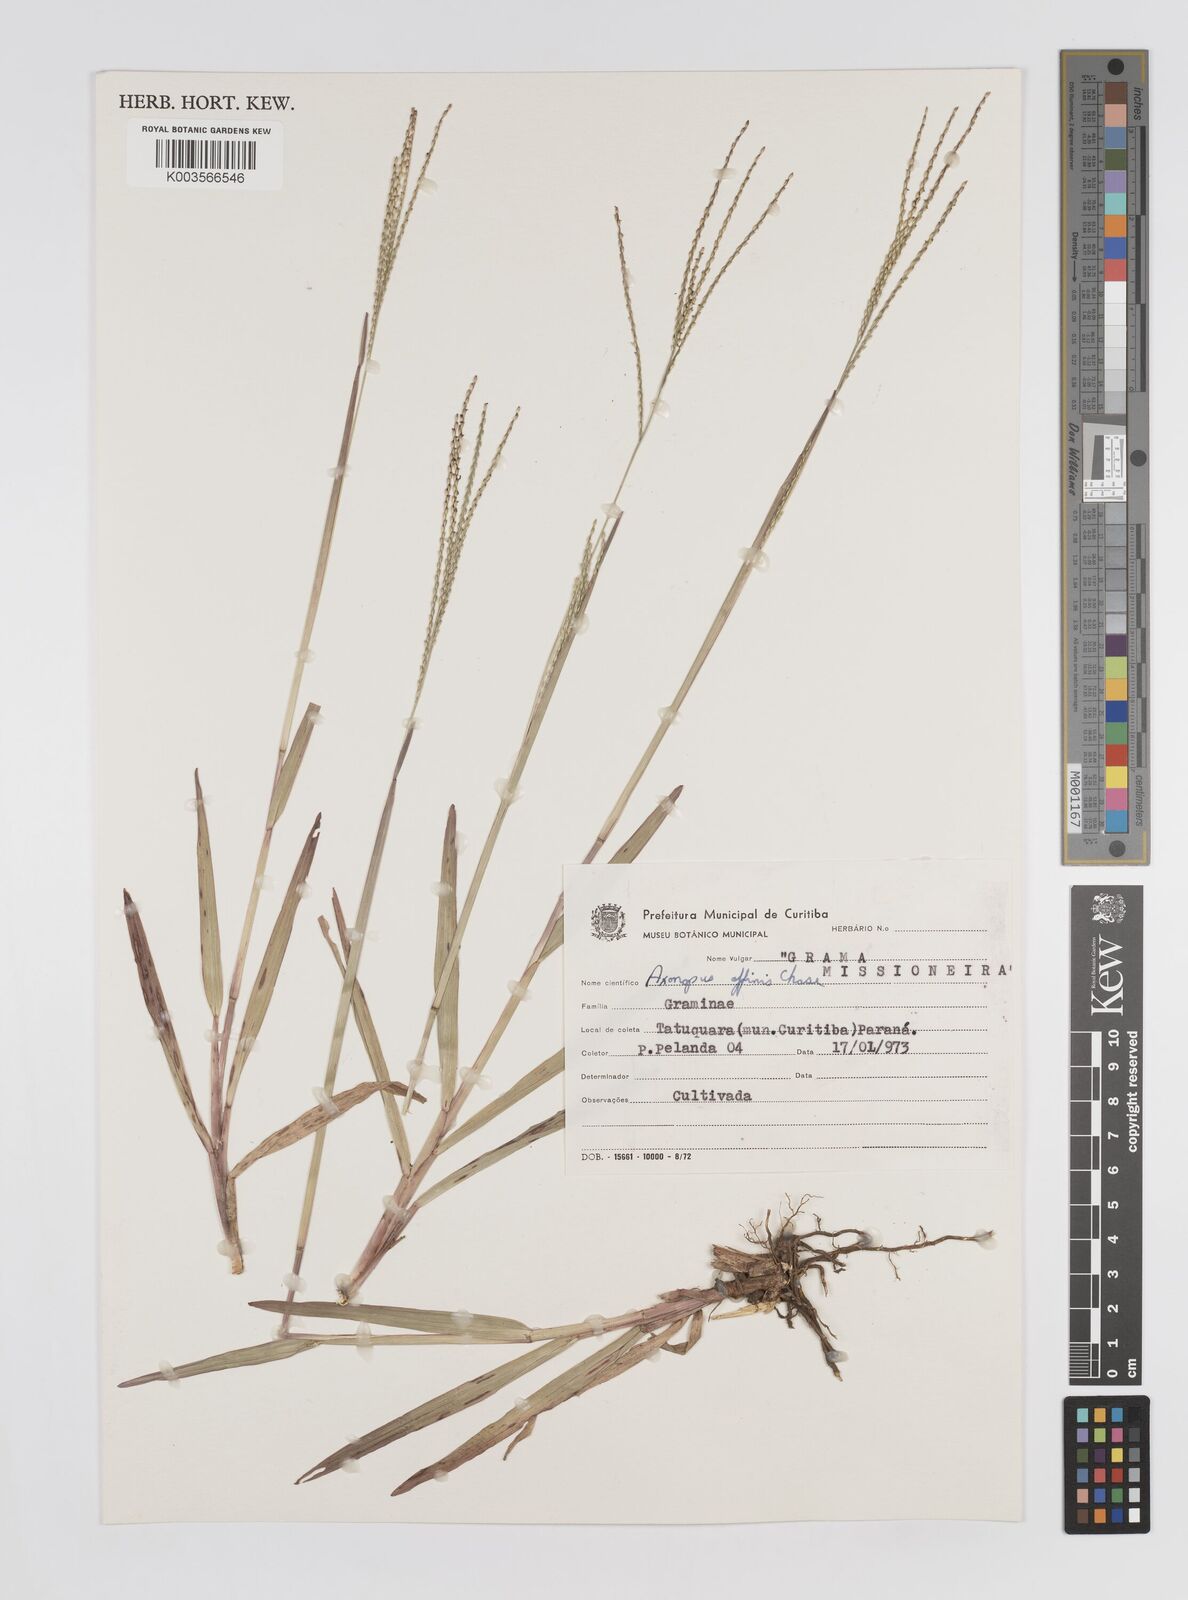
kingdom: Plantae
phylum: Tracheophyta
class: Liliopsida
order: Poales
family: Poaceae
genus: Axonopus
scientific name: Axonopus fissifolius
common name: Common carpetgrass
